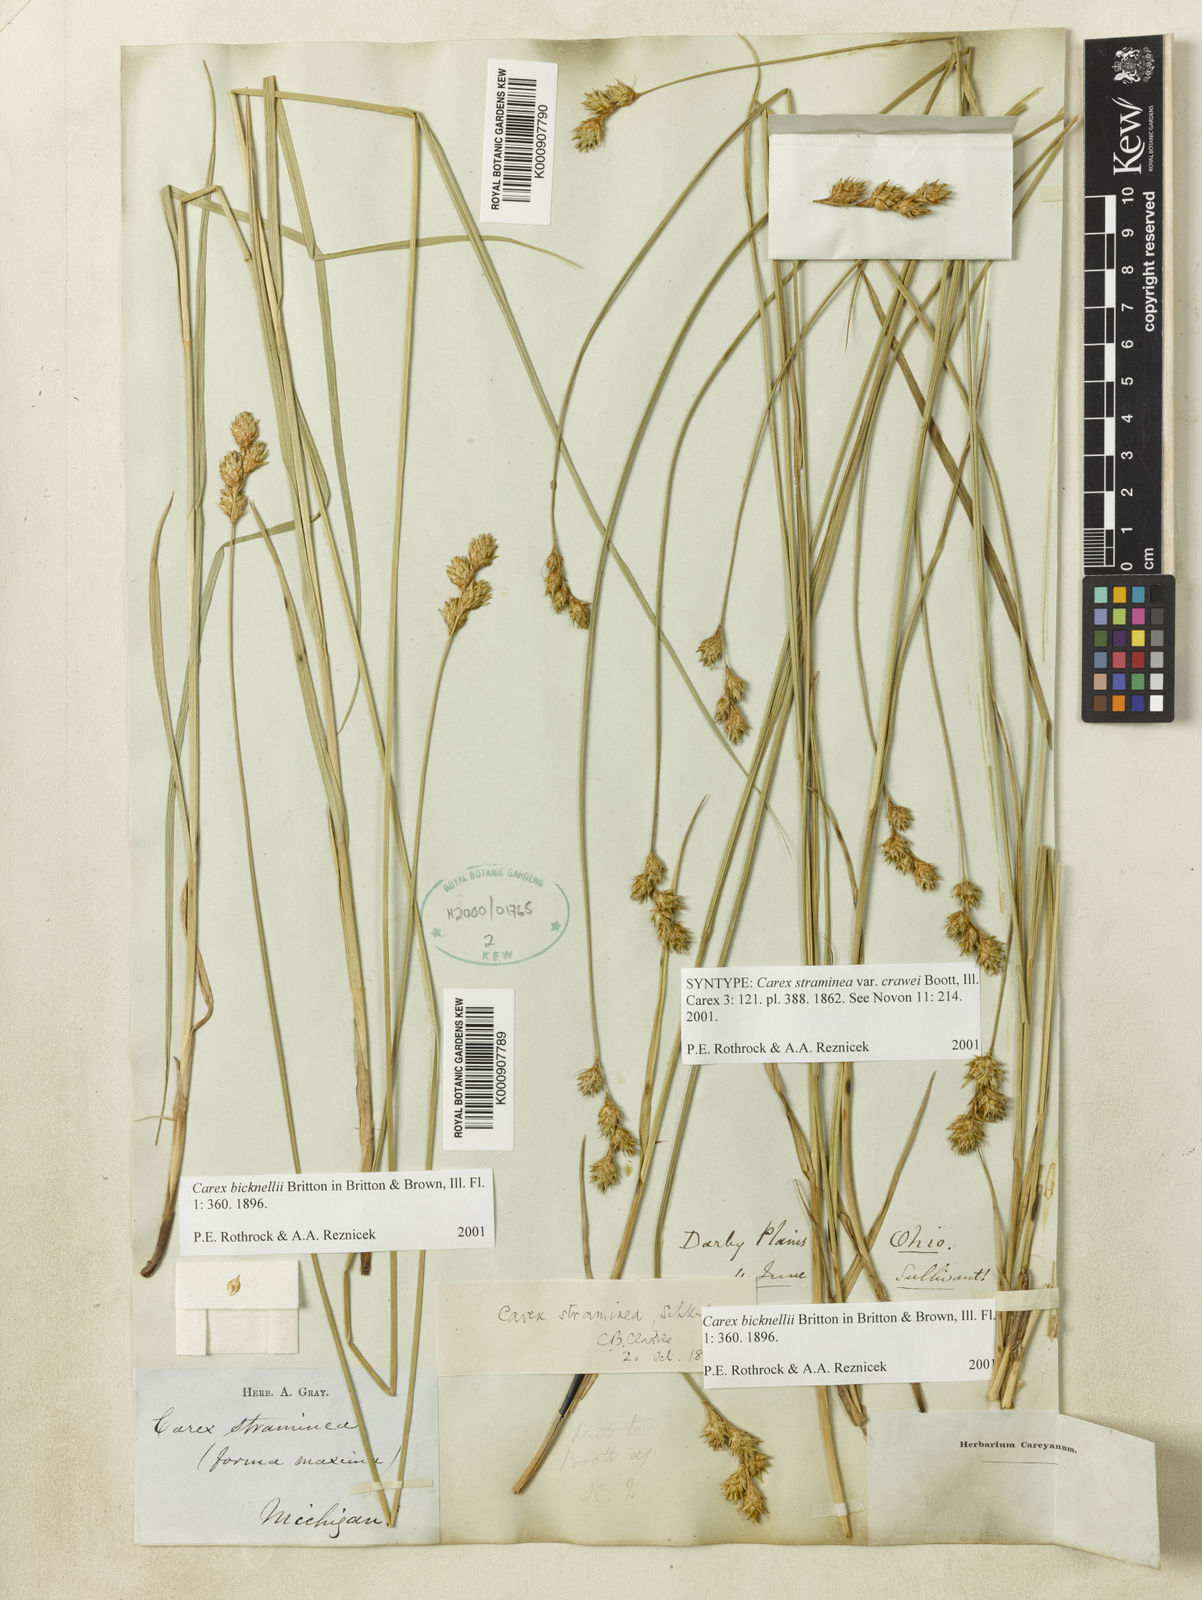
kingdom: Plantae
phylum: Tracheophyta
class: Liliopsida
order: Poales
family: Cyperaceae
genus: Carex
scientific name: Carex brevior
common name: Brevior sedge
